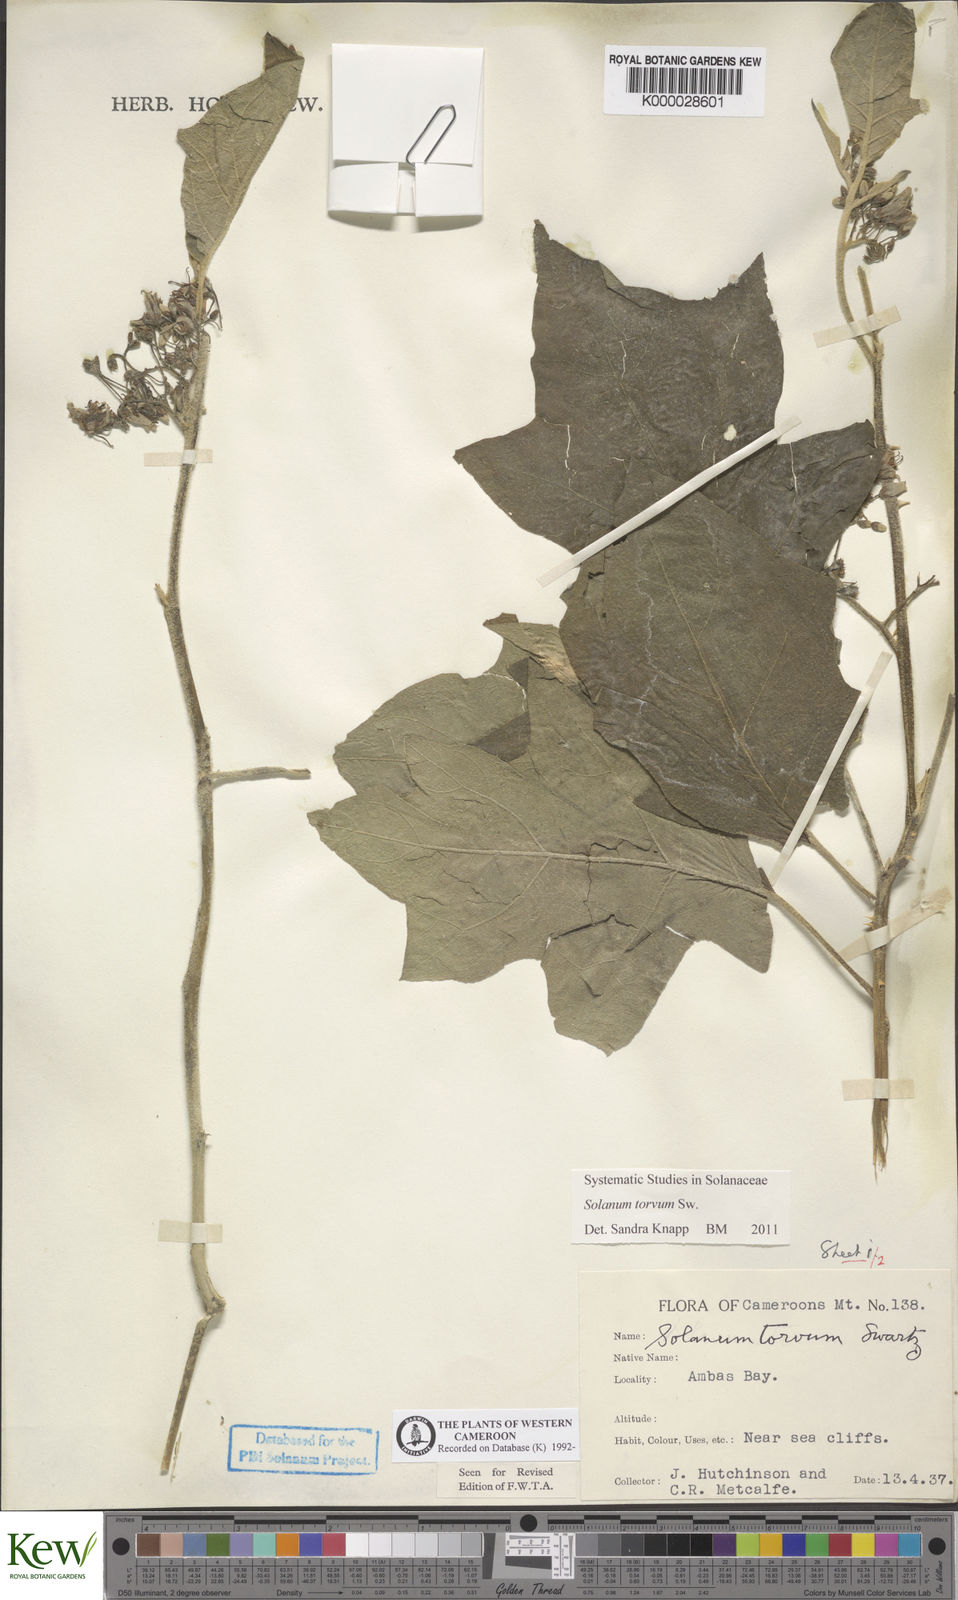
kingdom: Plantae
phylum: Tracheophyta
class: Magnoliopsida
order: Solanales
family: Solanaceae
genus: Solanum
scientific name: Solanum torvum
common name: Turkey berry
